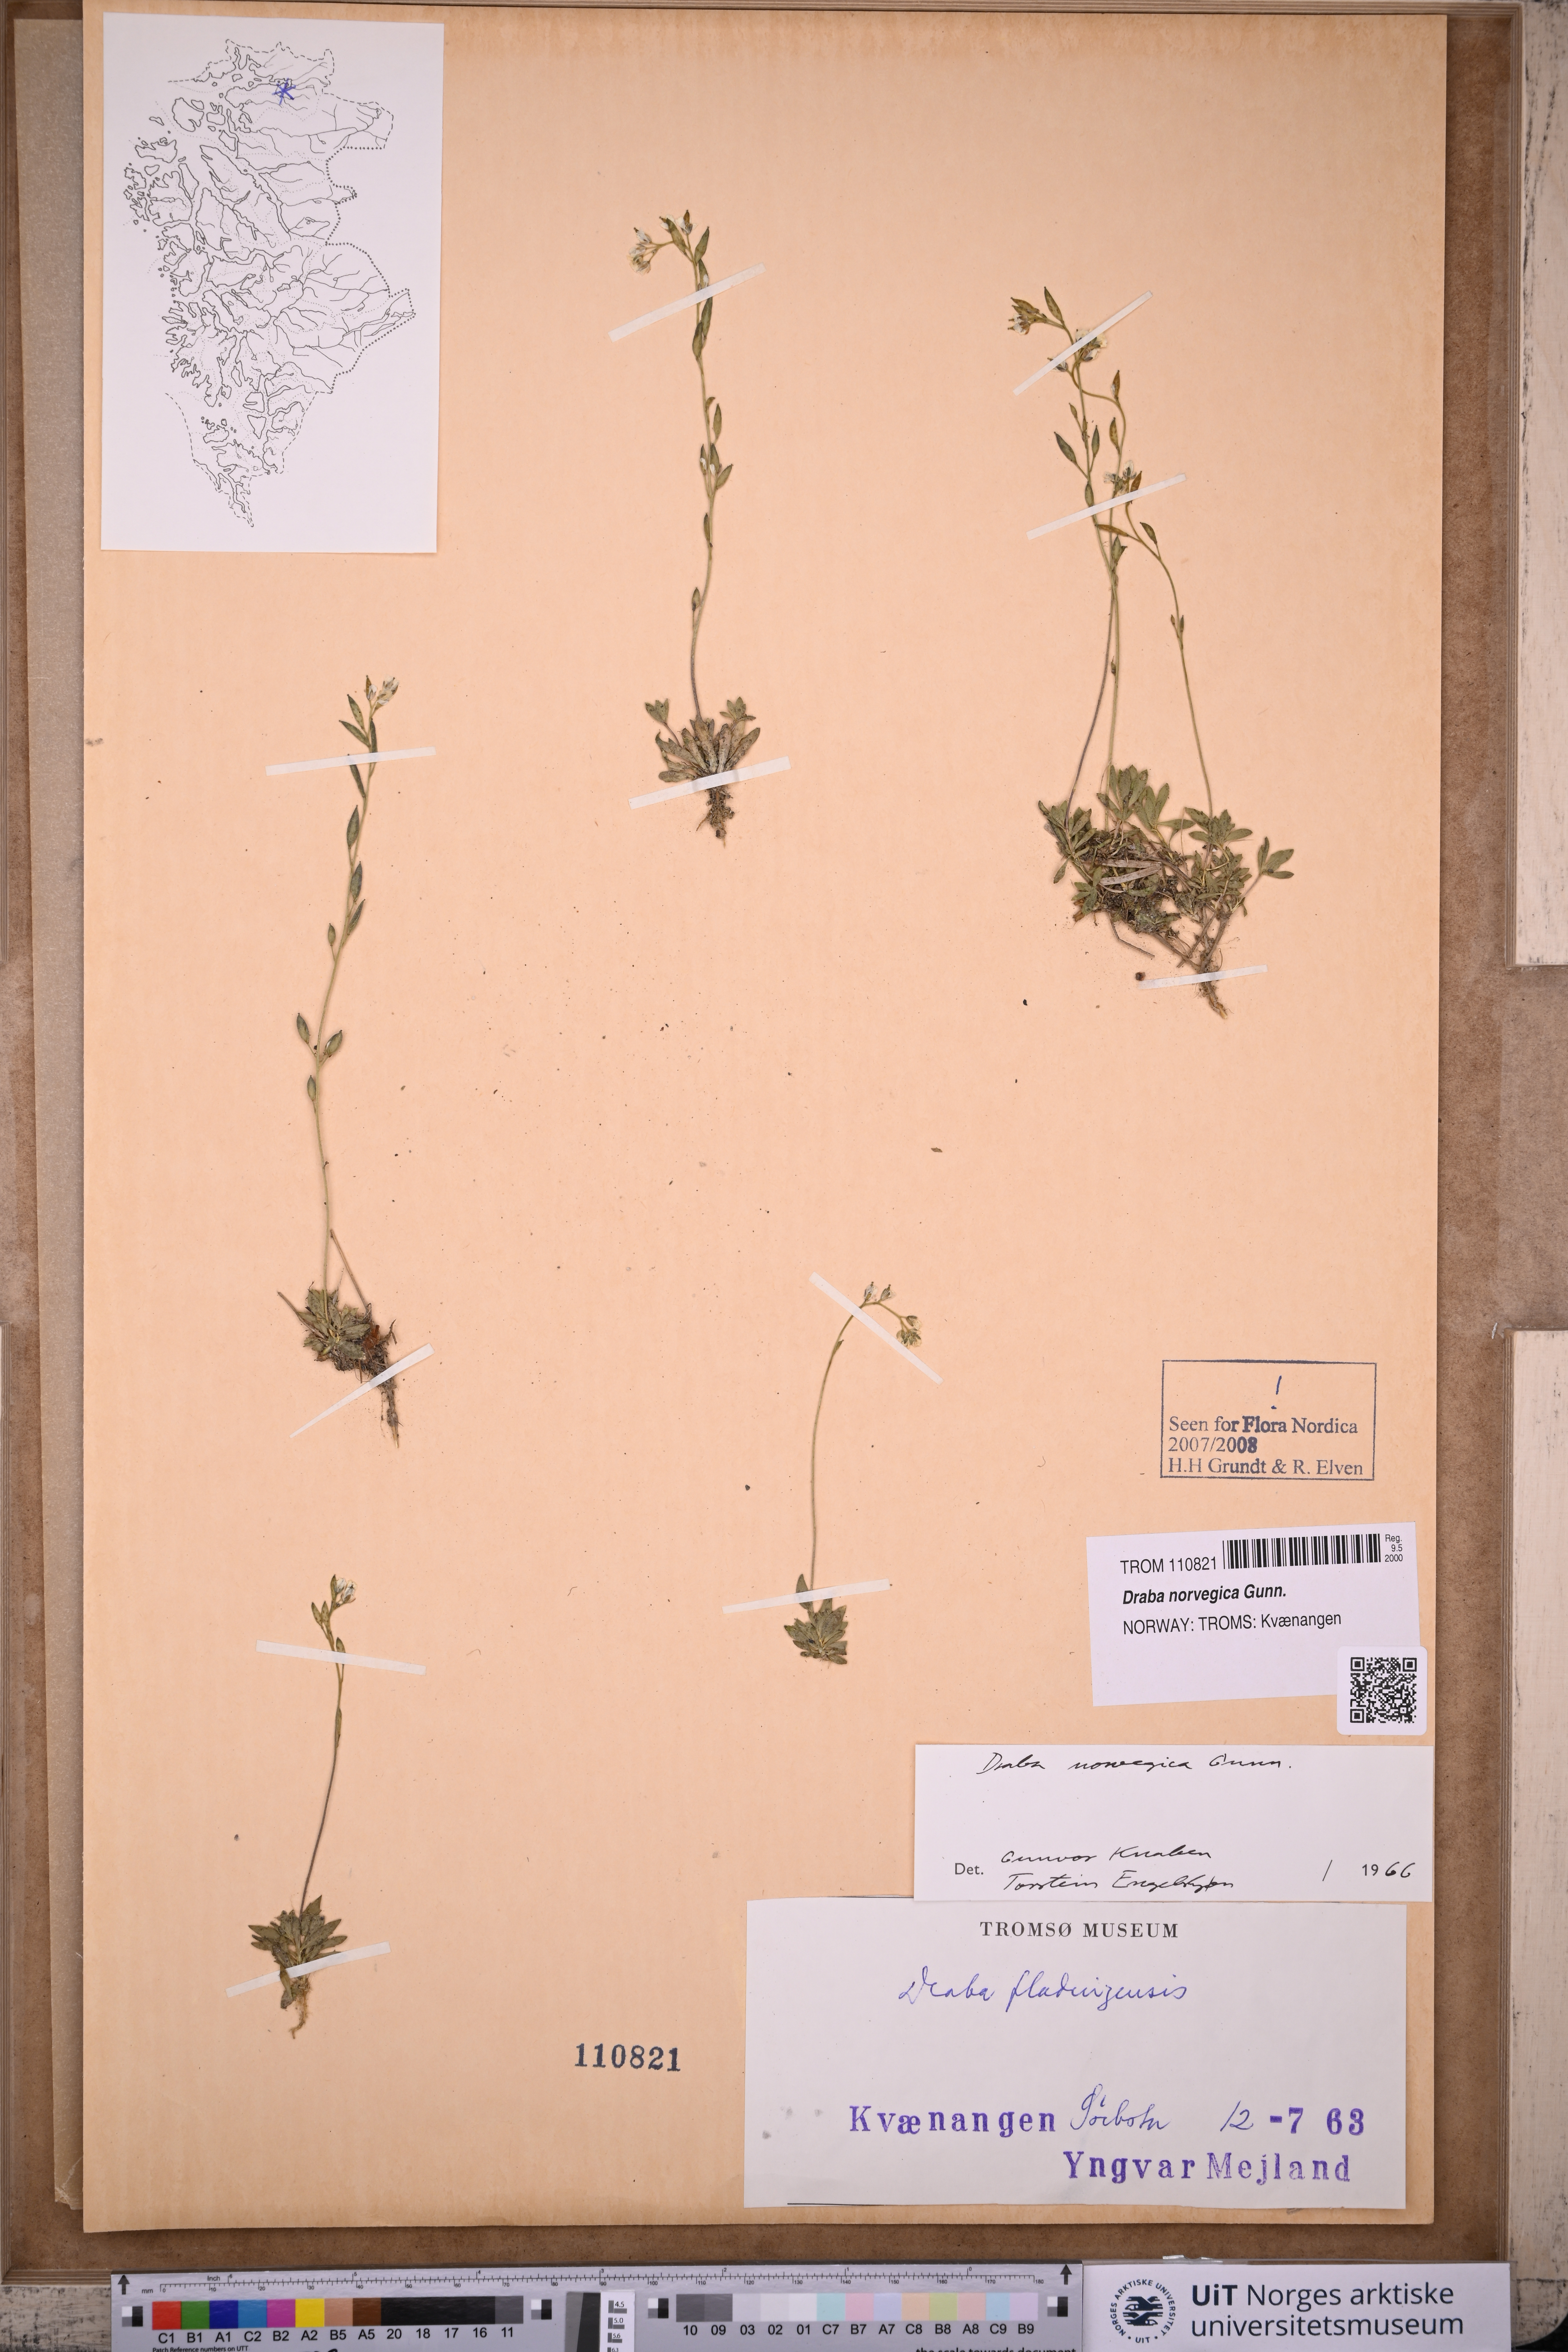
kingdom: Plantae
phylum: Tracheophyta
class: Magnoliopsida
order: Brassicales
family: Brassicaceae
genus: Draba
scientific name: Draba norvegica
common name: Rock whitlowgrass
